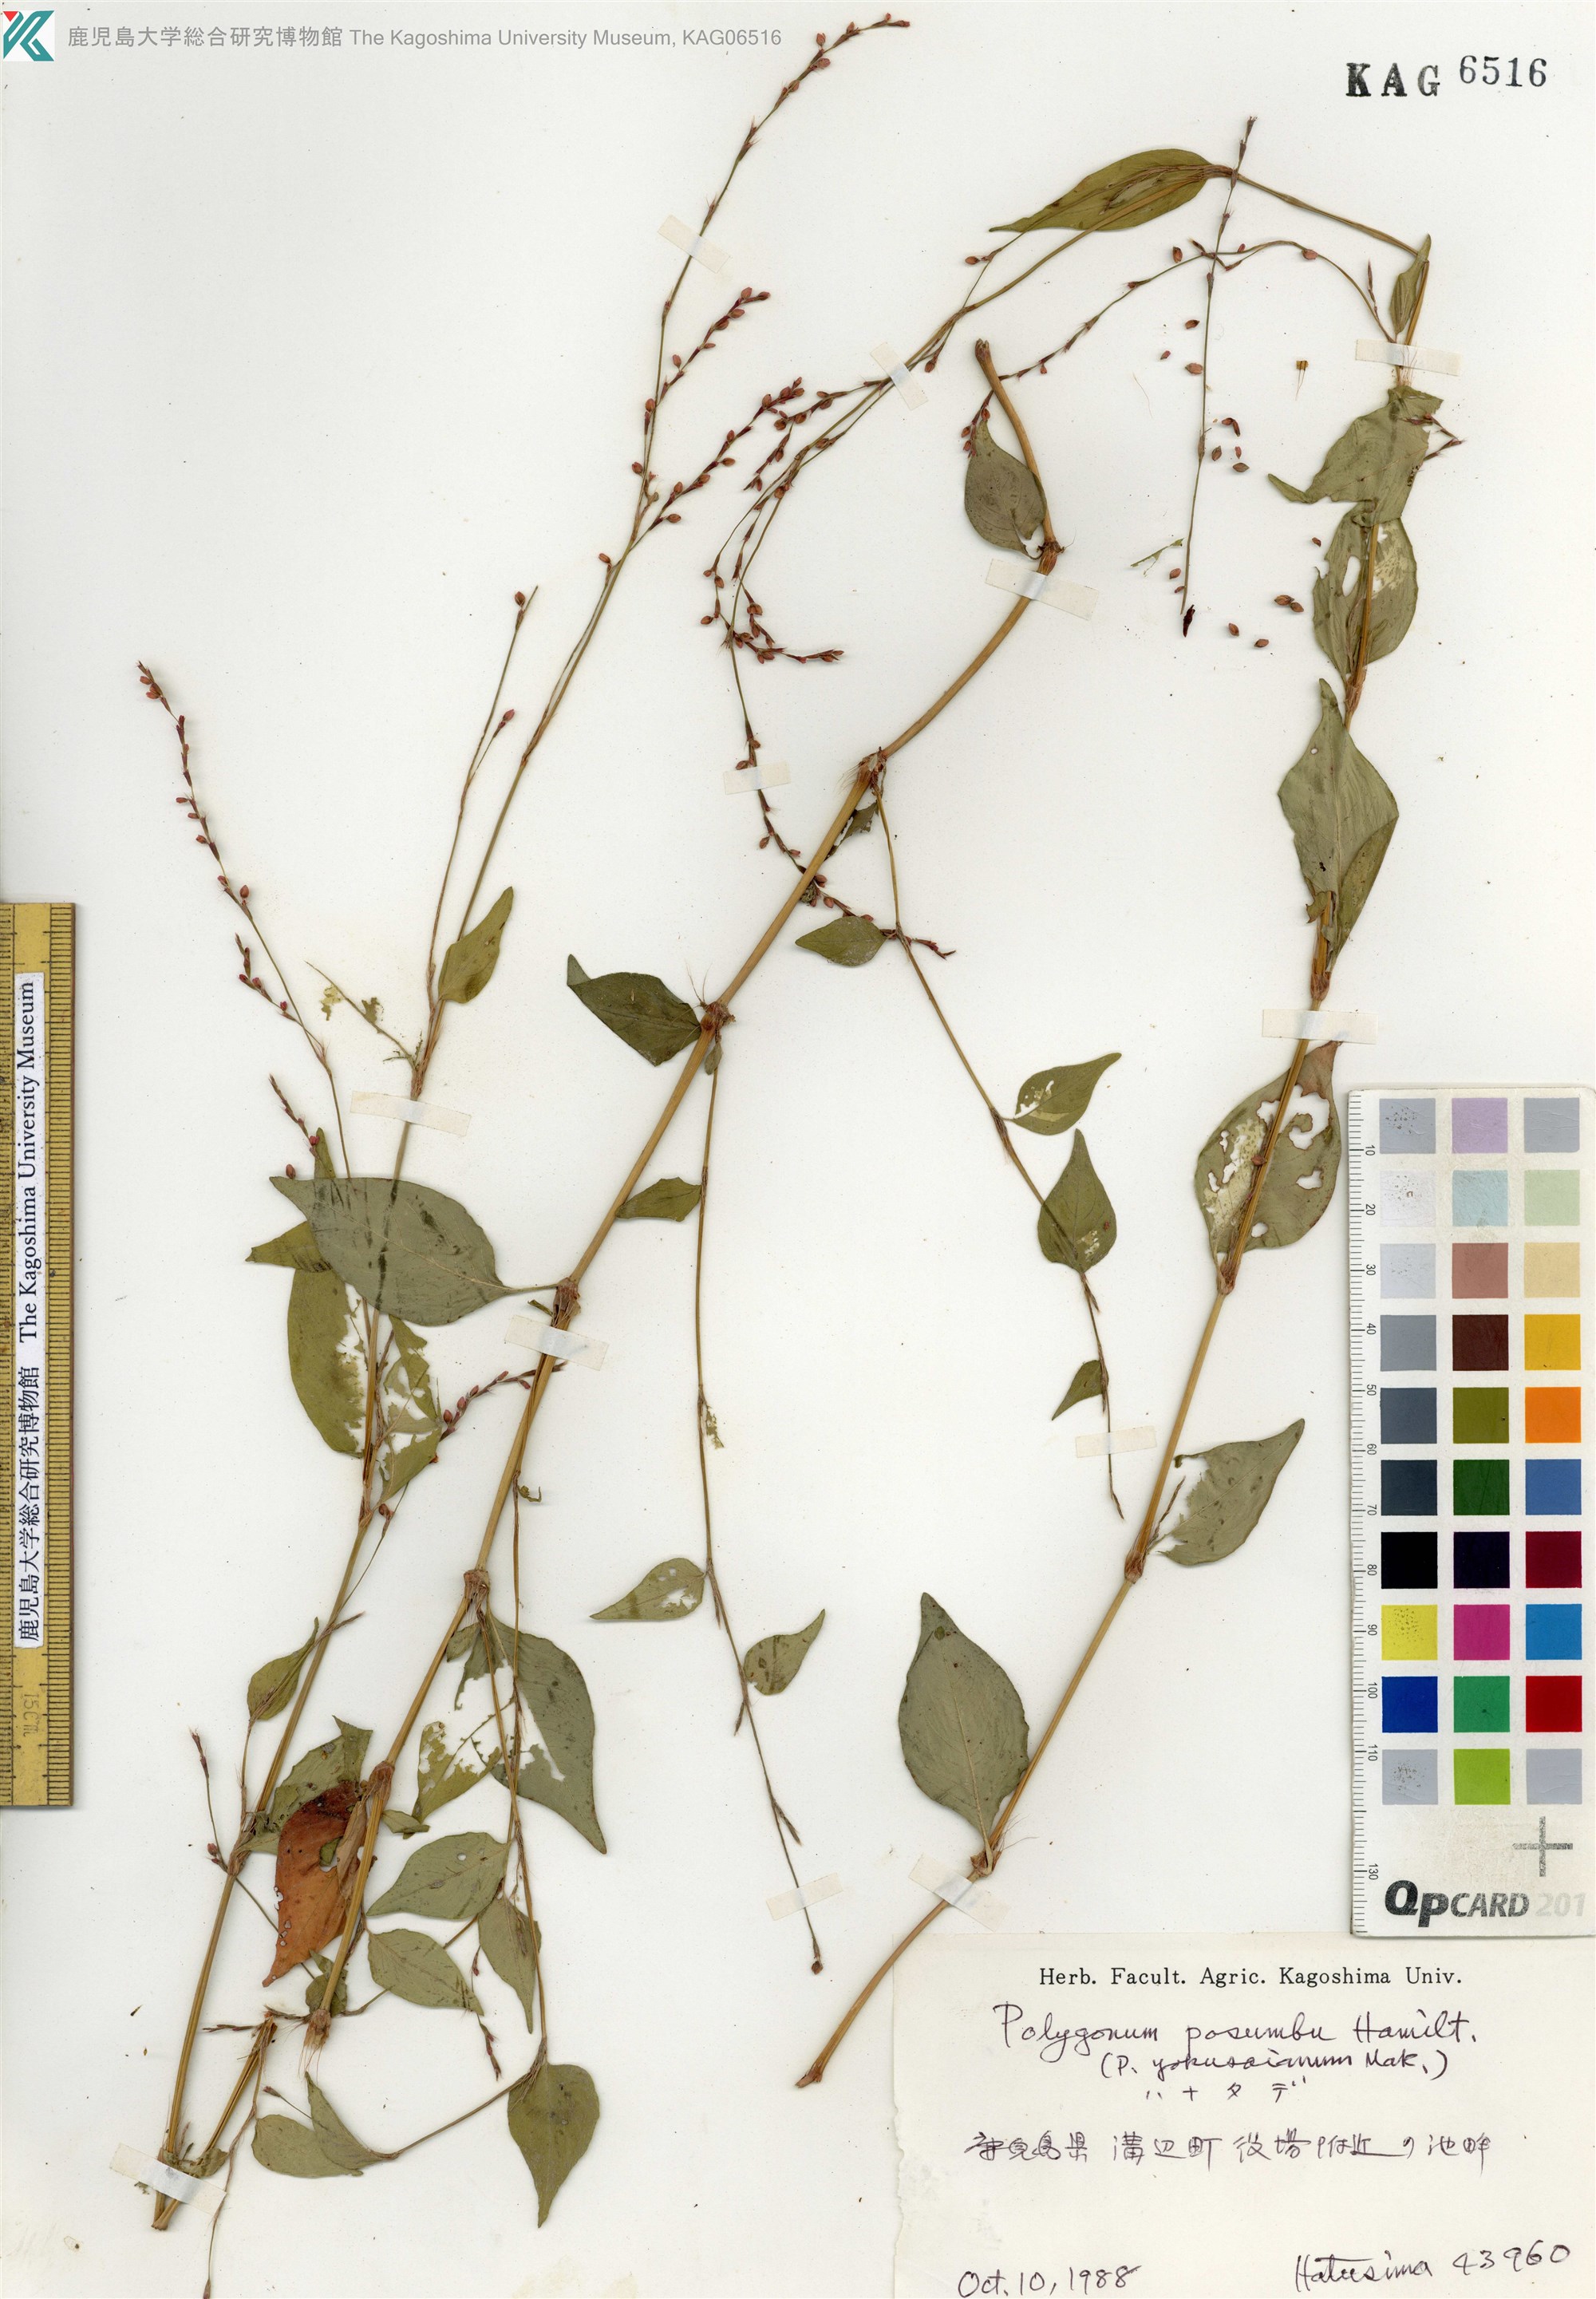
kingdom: Plantae
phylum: Tracheophyta
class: Magnoliopsida
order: Caryophyllales
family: Polygonaceae
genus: Persicaria
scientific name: Persicaria posumbu
